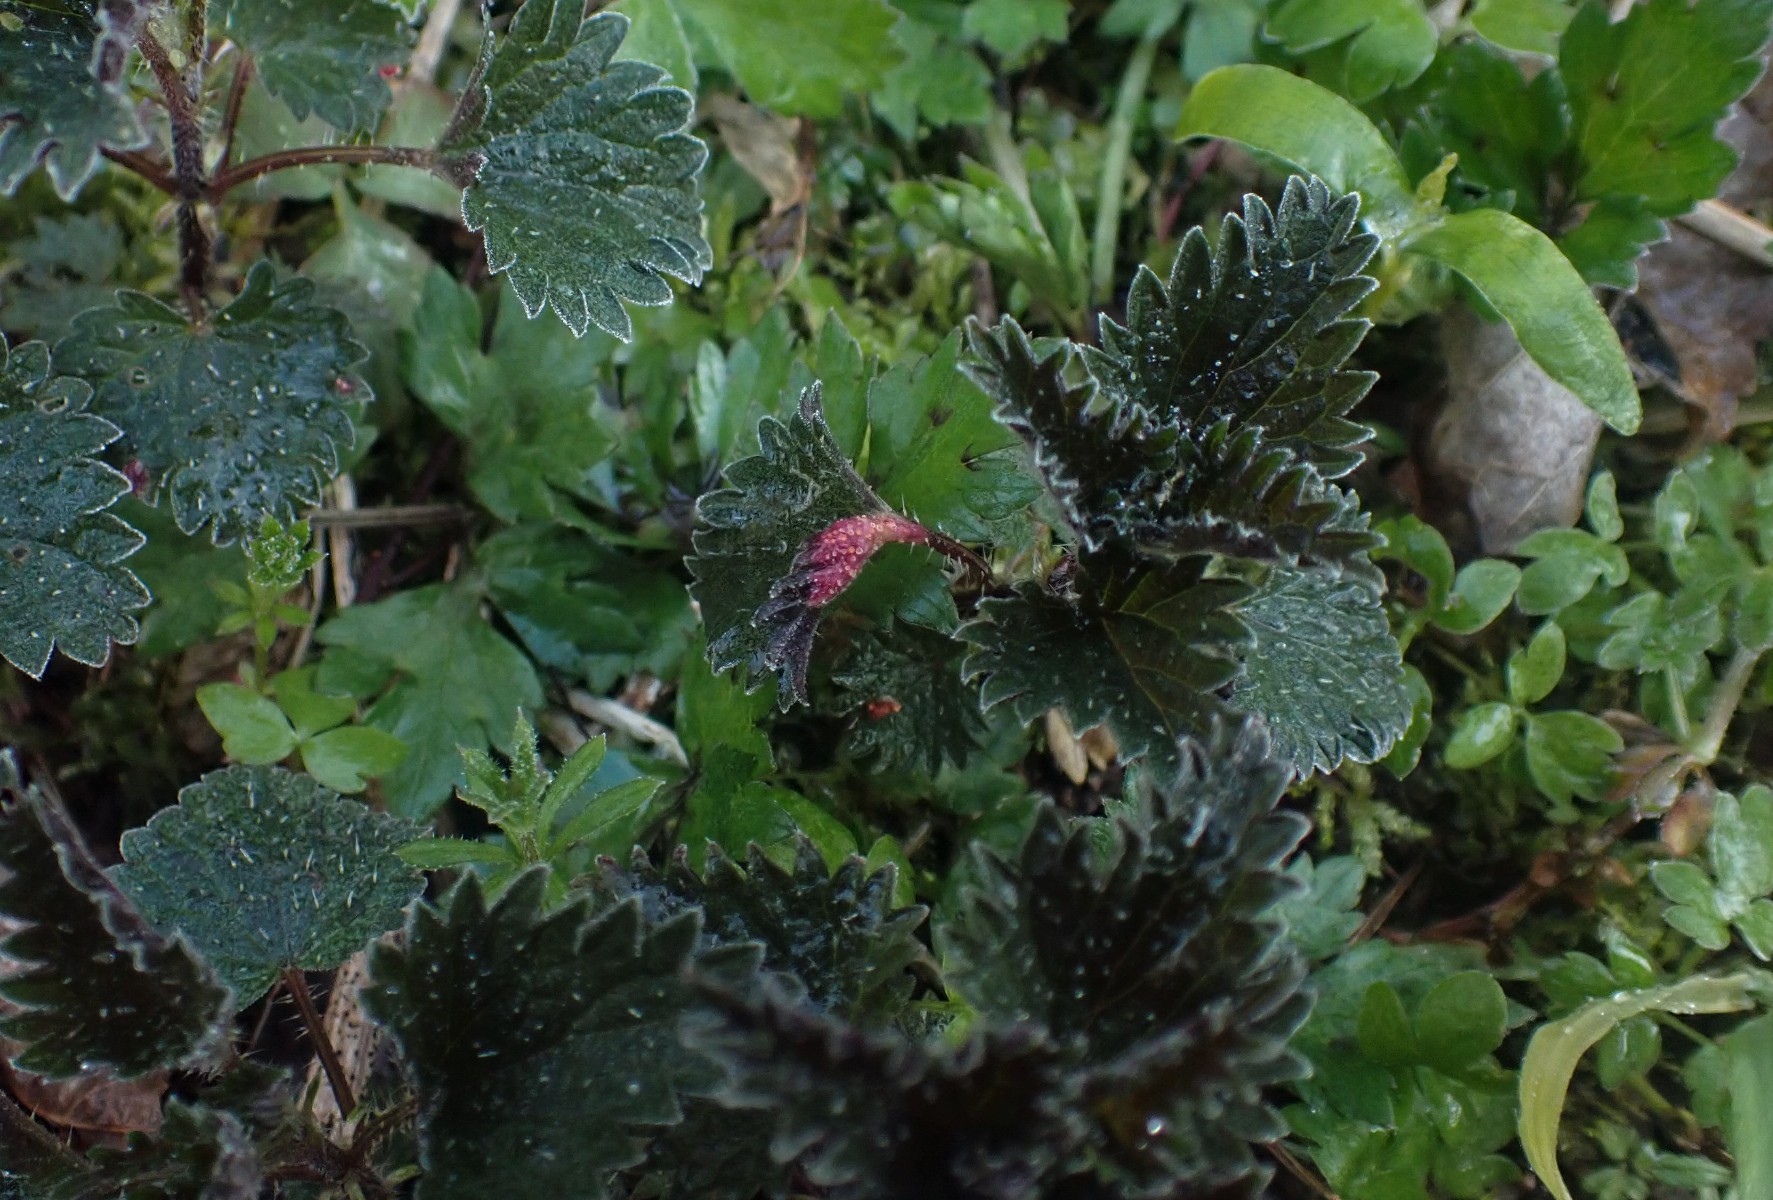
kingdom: Fungi
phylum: Basidiomycota
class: Pucciniomycetes
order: Pucciniales
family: Pucciniaceae
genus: Puccinia
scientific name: Puccinia urticata
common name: nældegalle-tvecellerust
